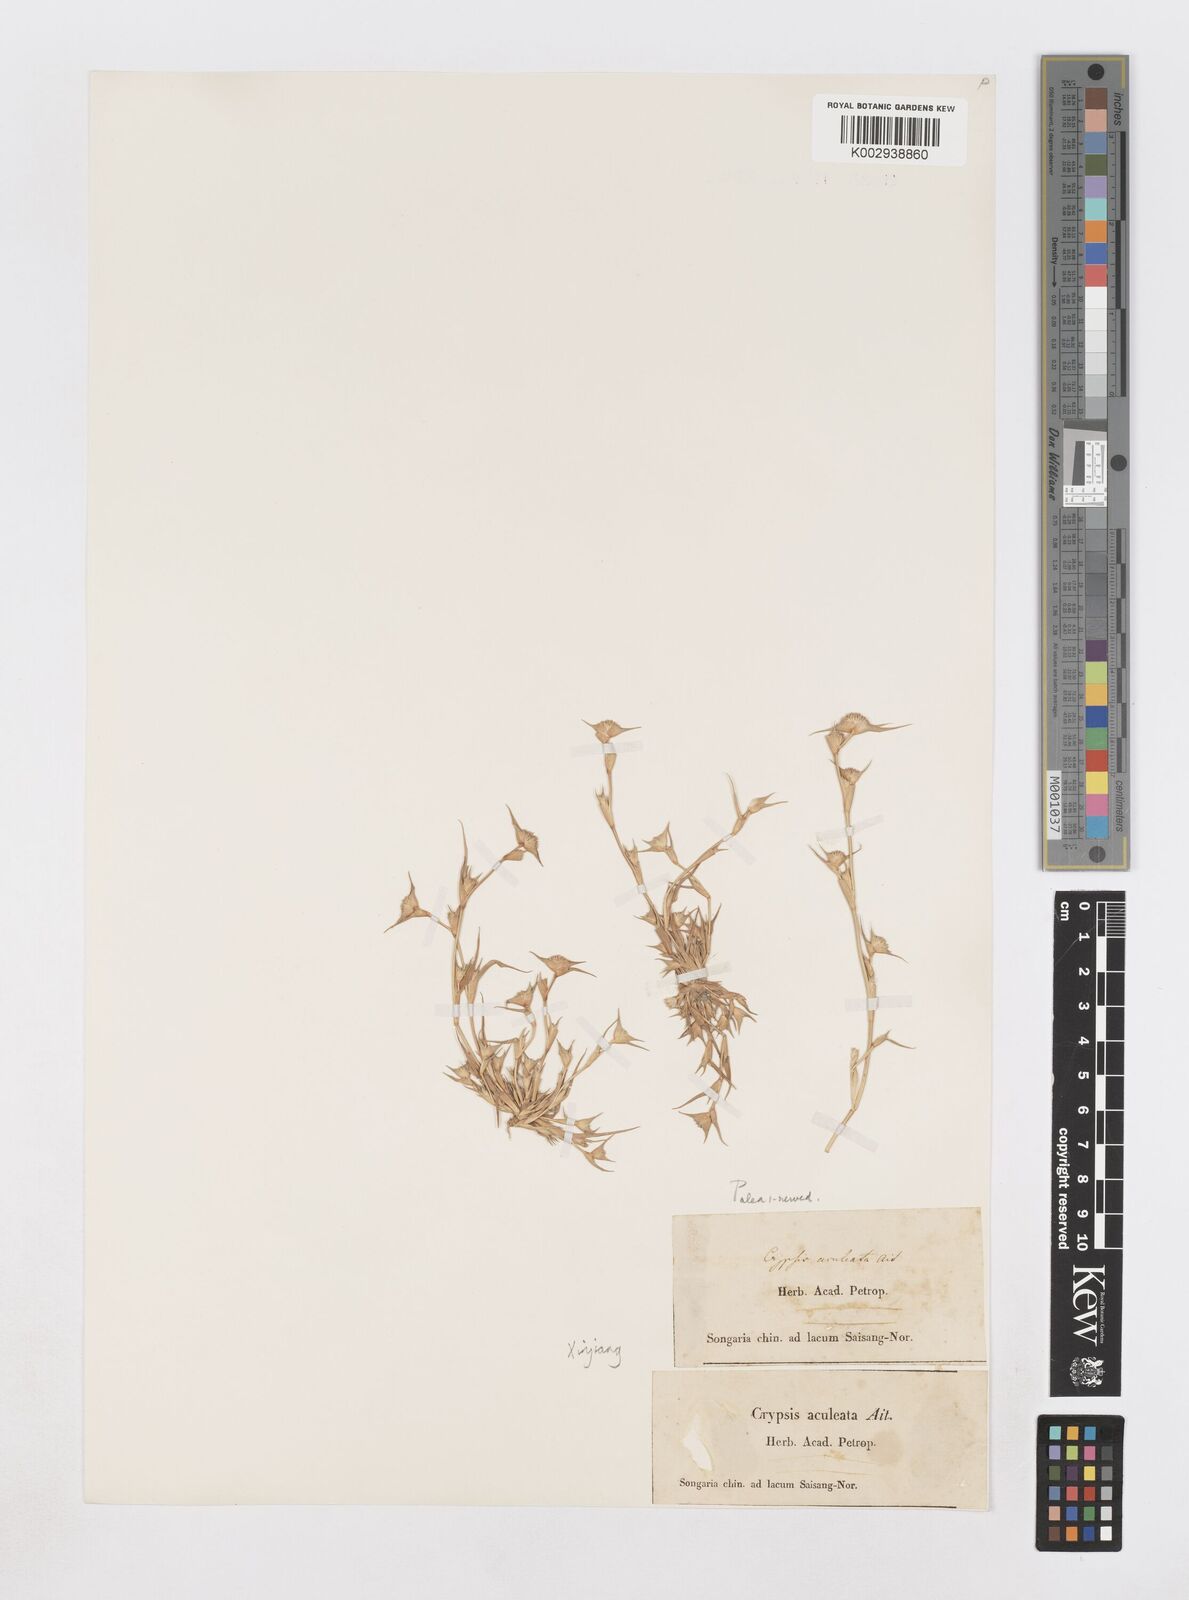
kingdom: Plantae
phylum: Tracheophyta
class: Liliopsida
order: Poales
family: Poaceae
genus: Sporobolus
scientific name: Sporobolus aculeatus
